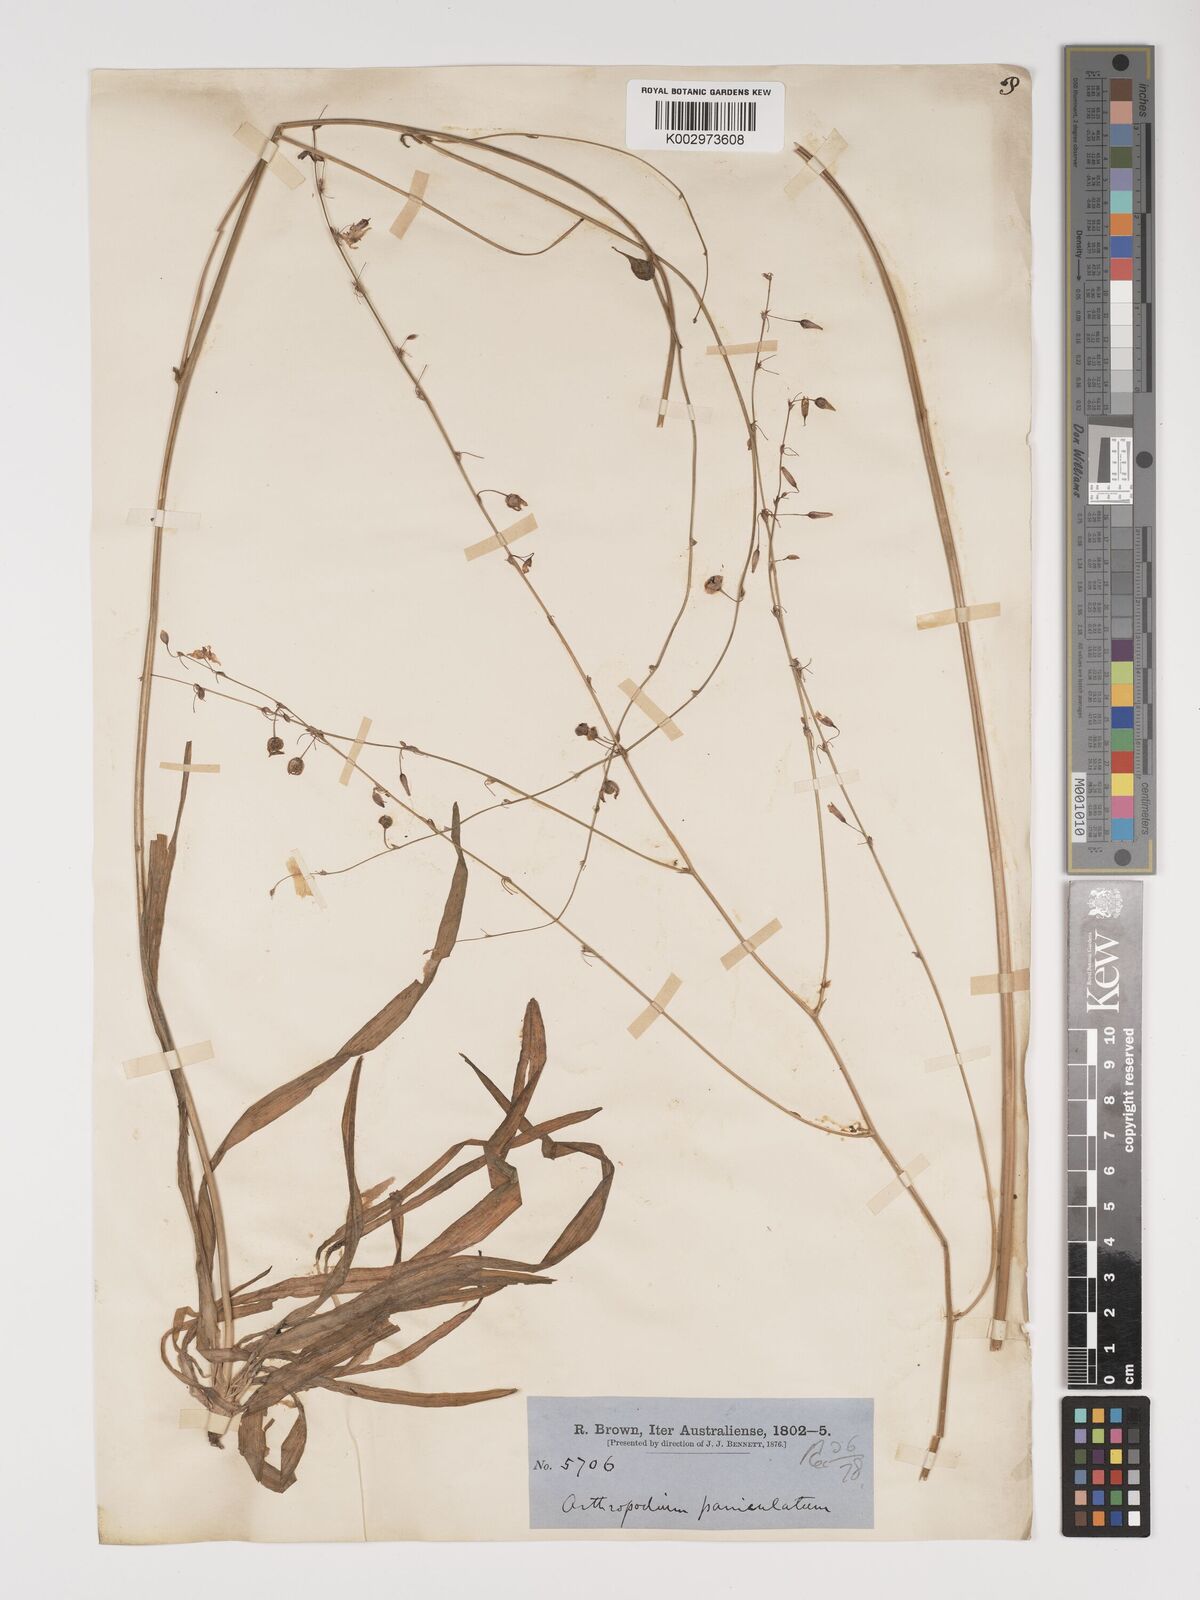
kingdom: Plantae
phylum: Tracheophyta
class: Liliopsida
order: Asparagales
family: Asparagaceae
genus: Arthropodium
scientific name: Arthropodium milleflorum
